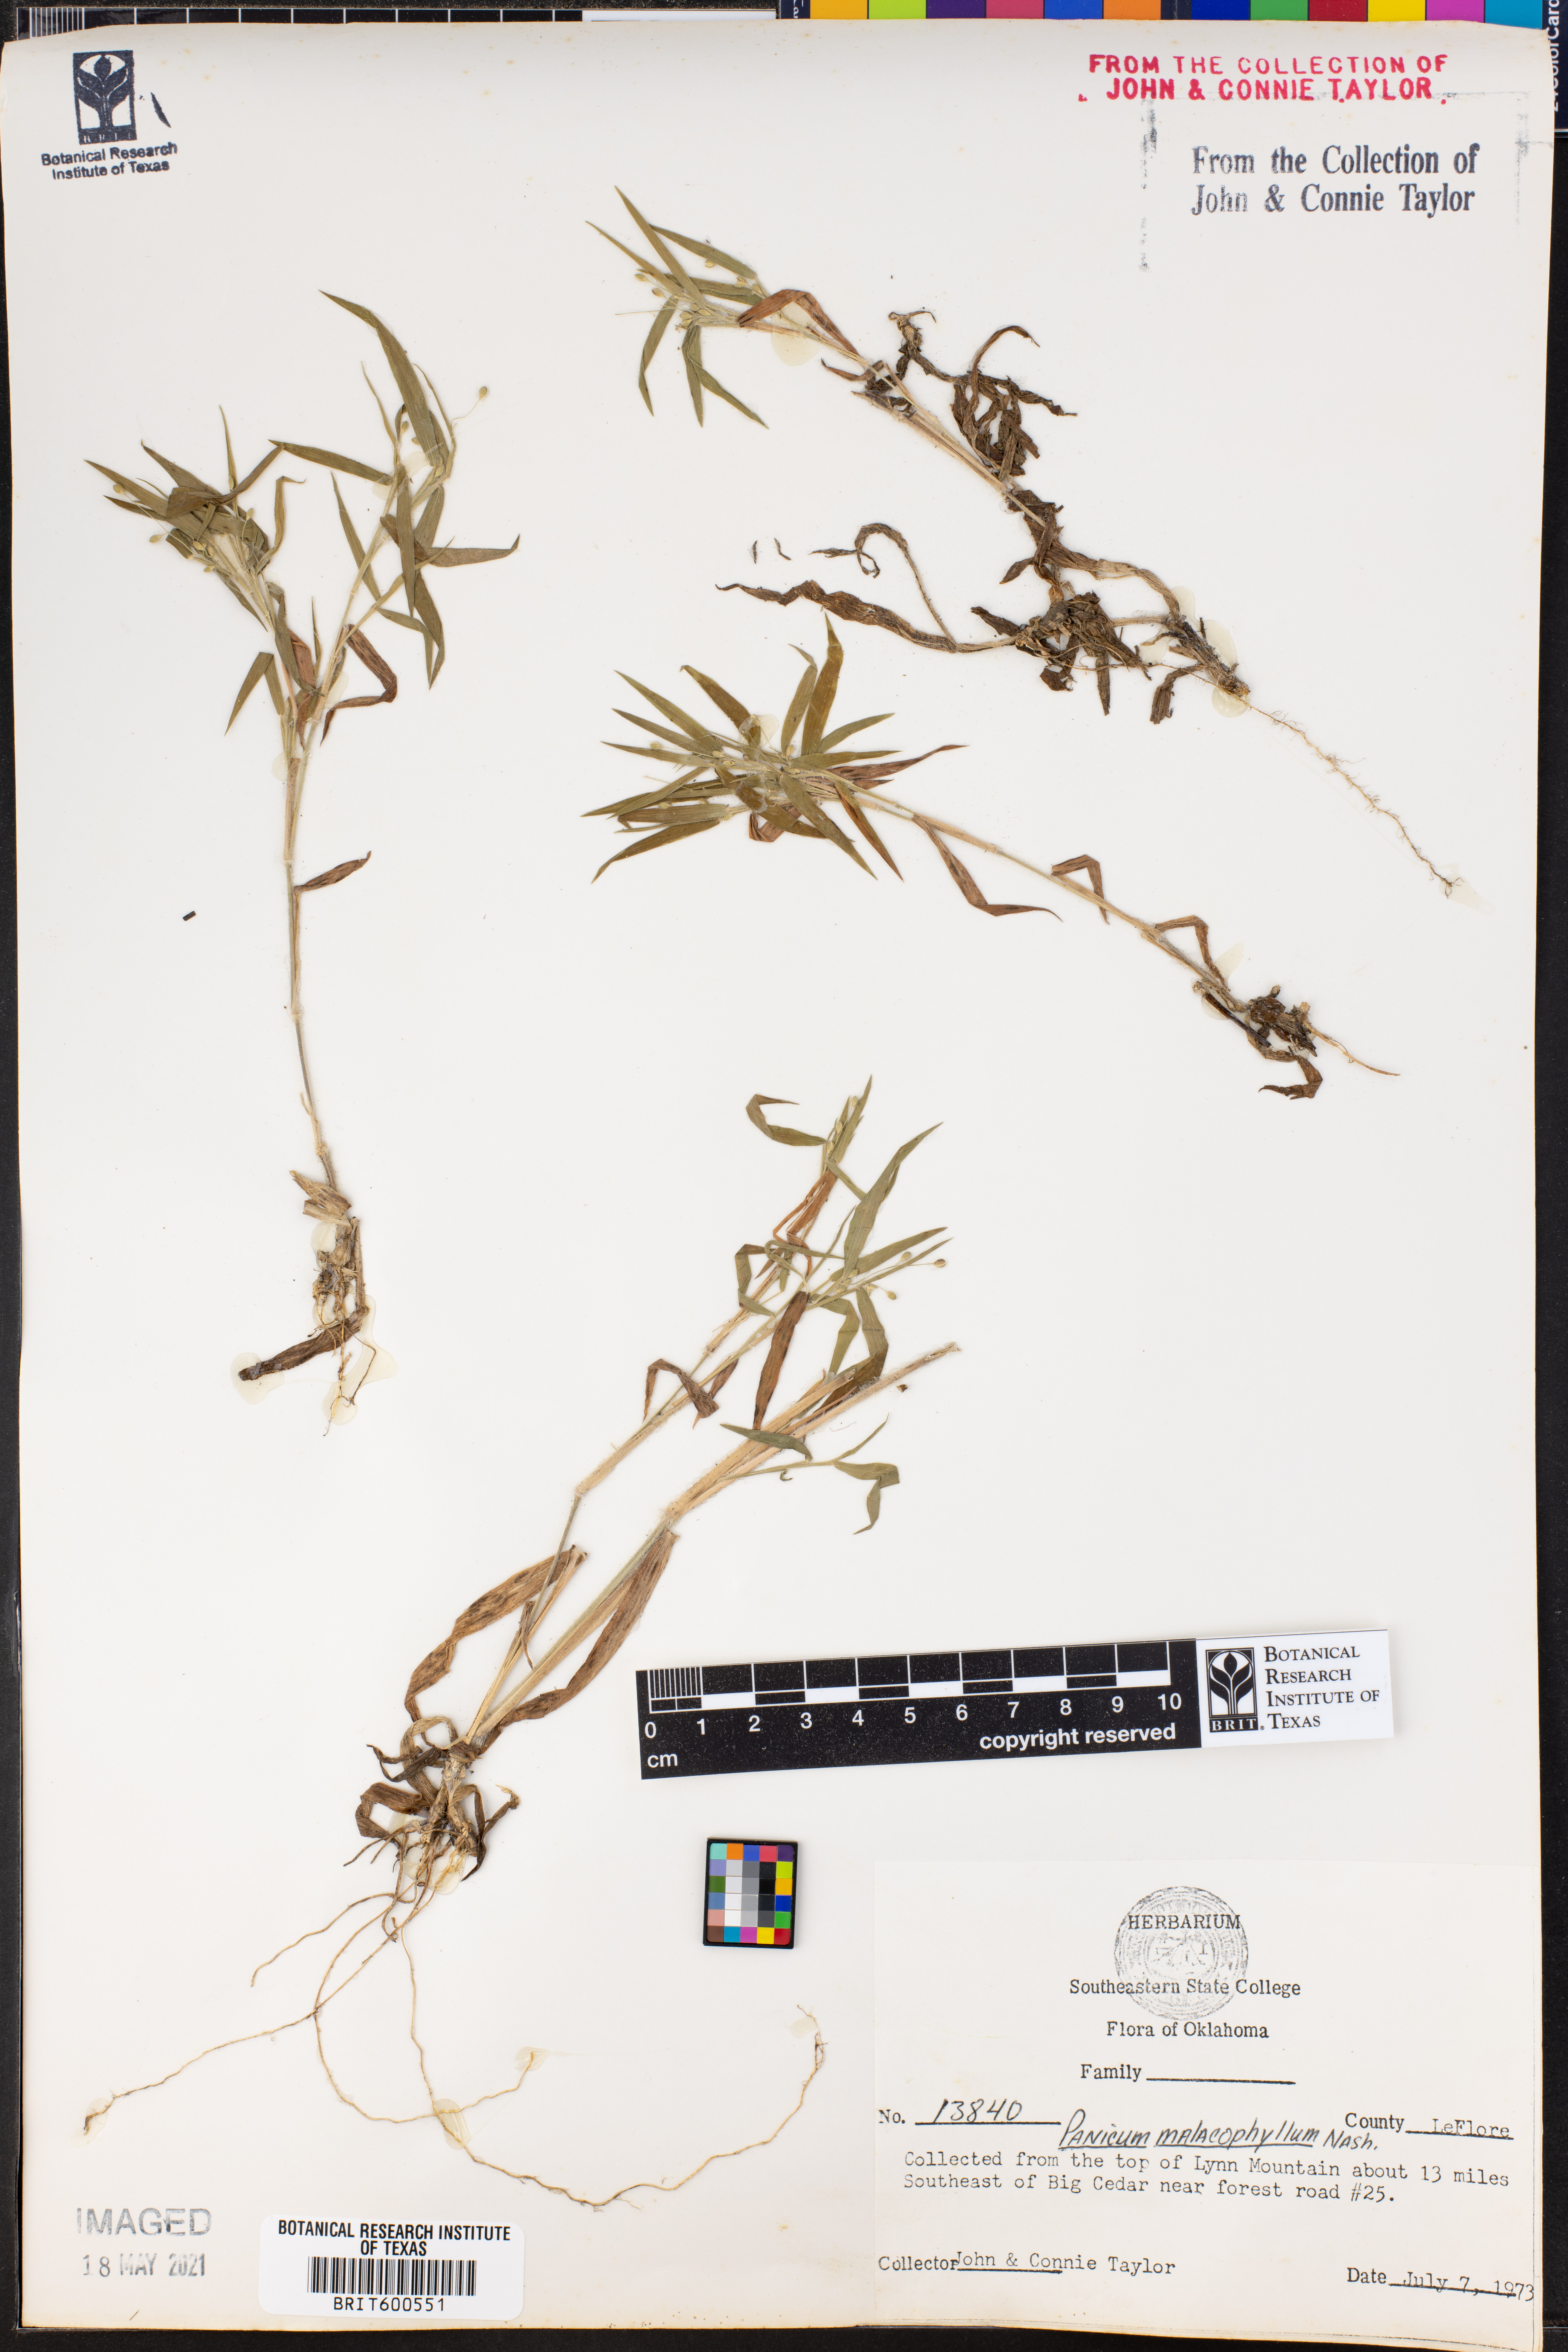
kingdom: Plantae
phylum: Tracheophyta
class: Liliopsida
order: Poales
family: Poaceae
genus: Dichanthelium
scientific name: Dichanthelium malacophyllum
